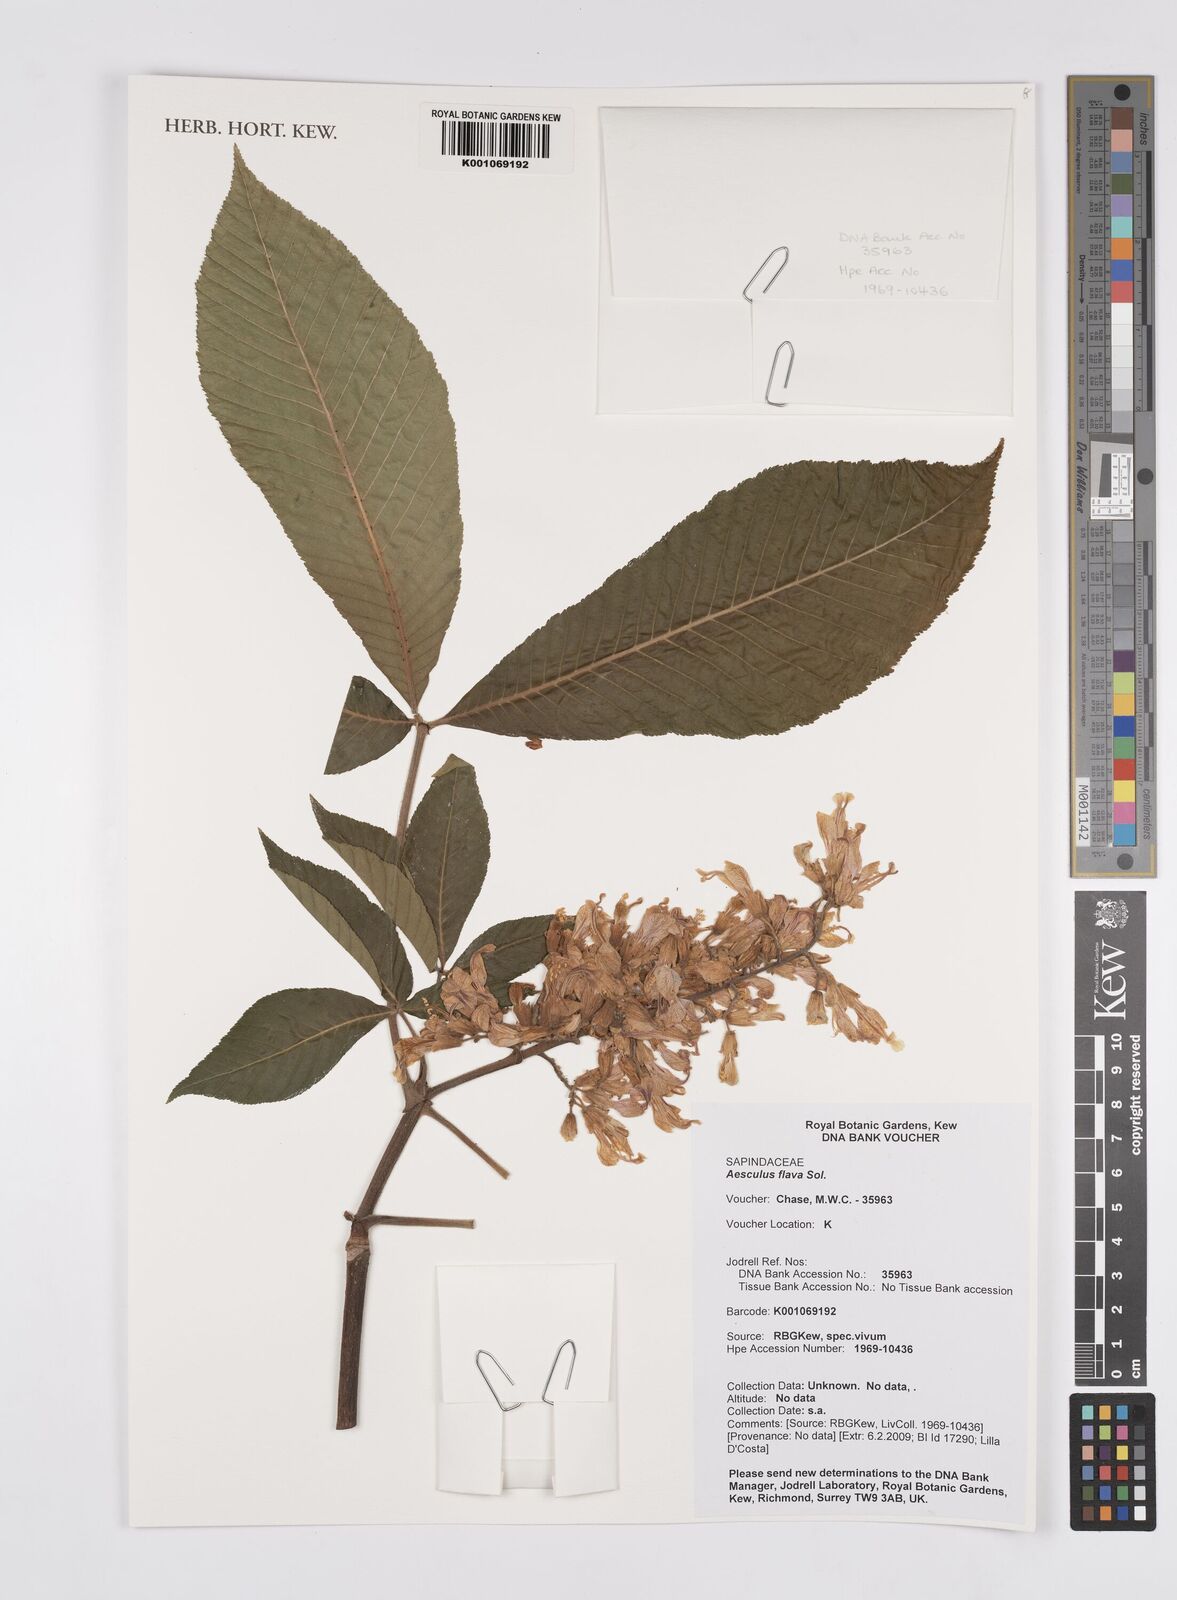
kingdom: Plantae
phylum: Tracheophyta
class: Magnoliopsida
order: Sapindales
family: Sapindaceae
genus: Aesculus
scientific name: Aesculus flava
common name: Yellow buckeye
